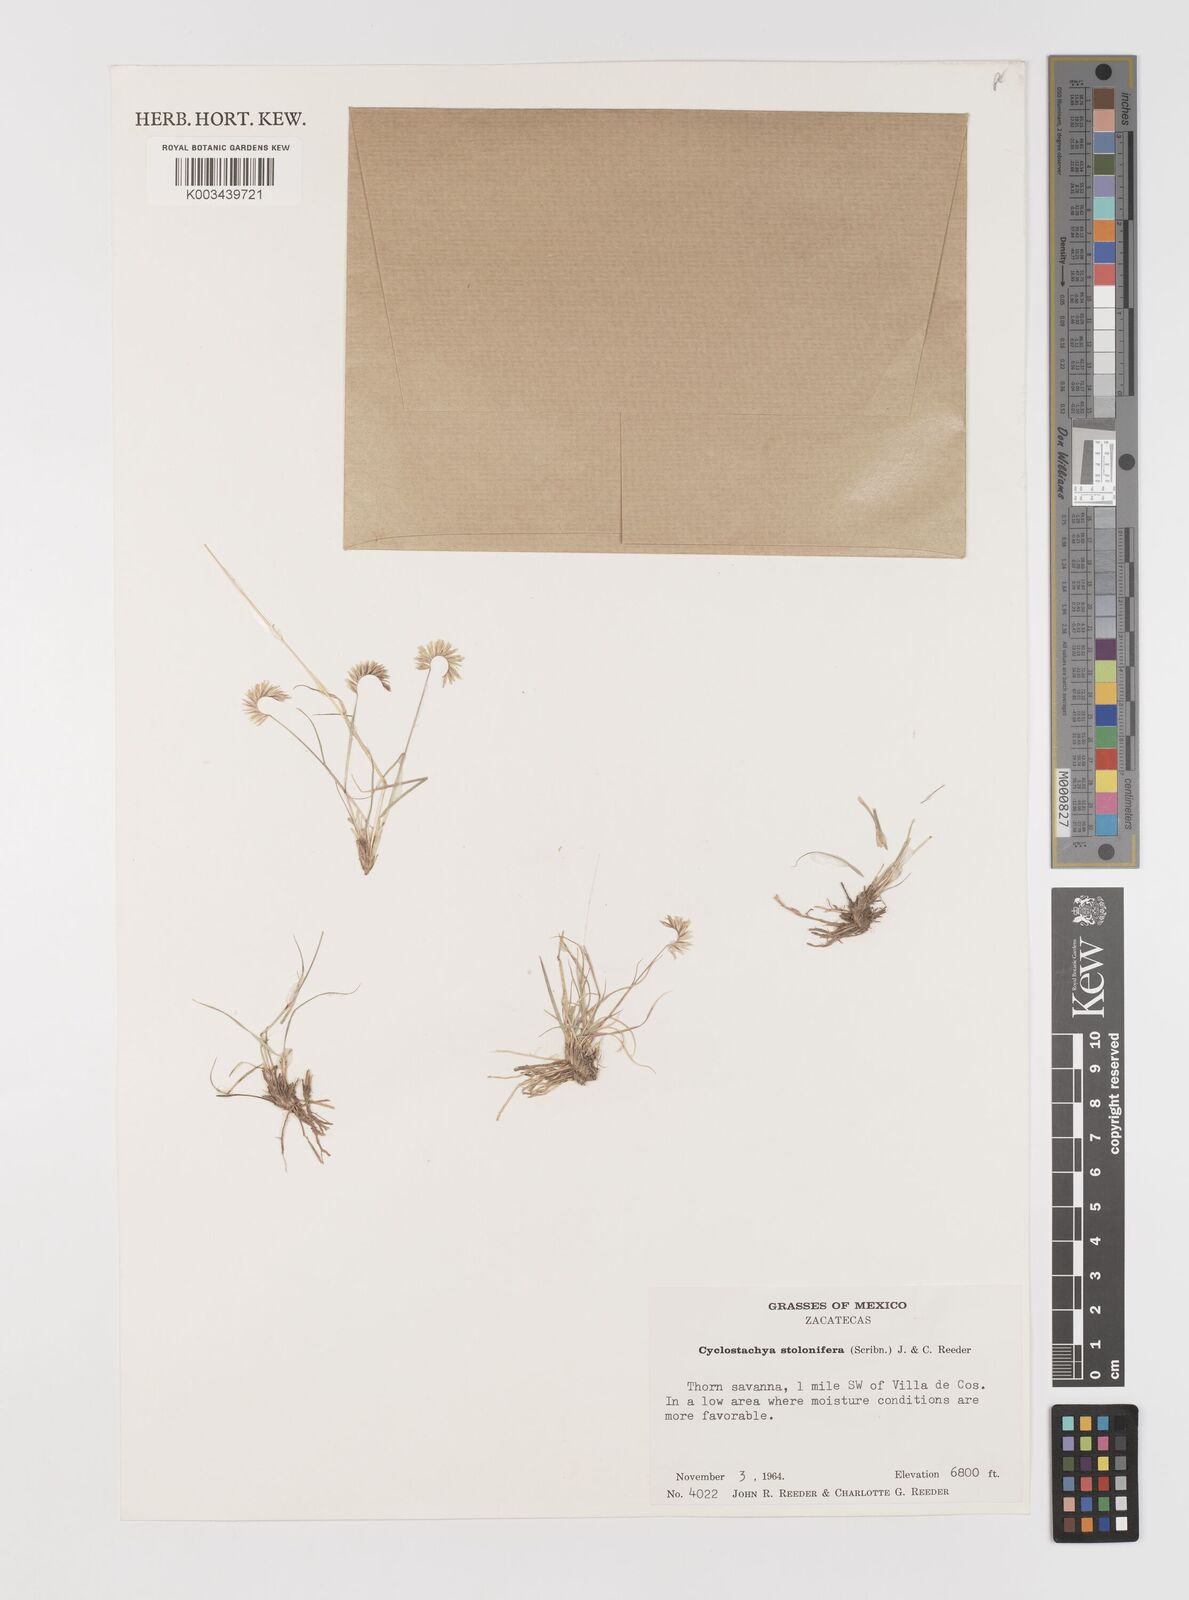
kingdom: Plantae
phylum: Tracheophyta
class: Liliopsida
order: Poales
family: Poaceae
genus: Bouteloua
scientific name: Bouteloua stolonifera
